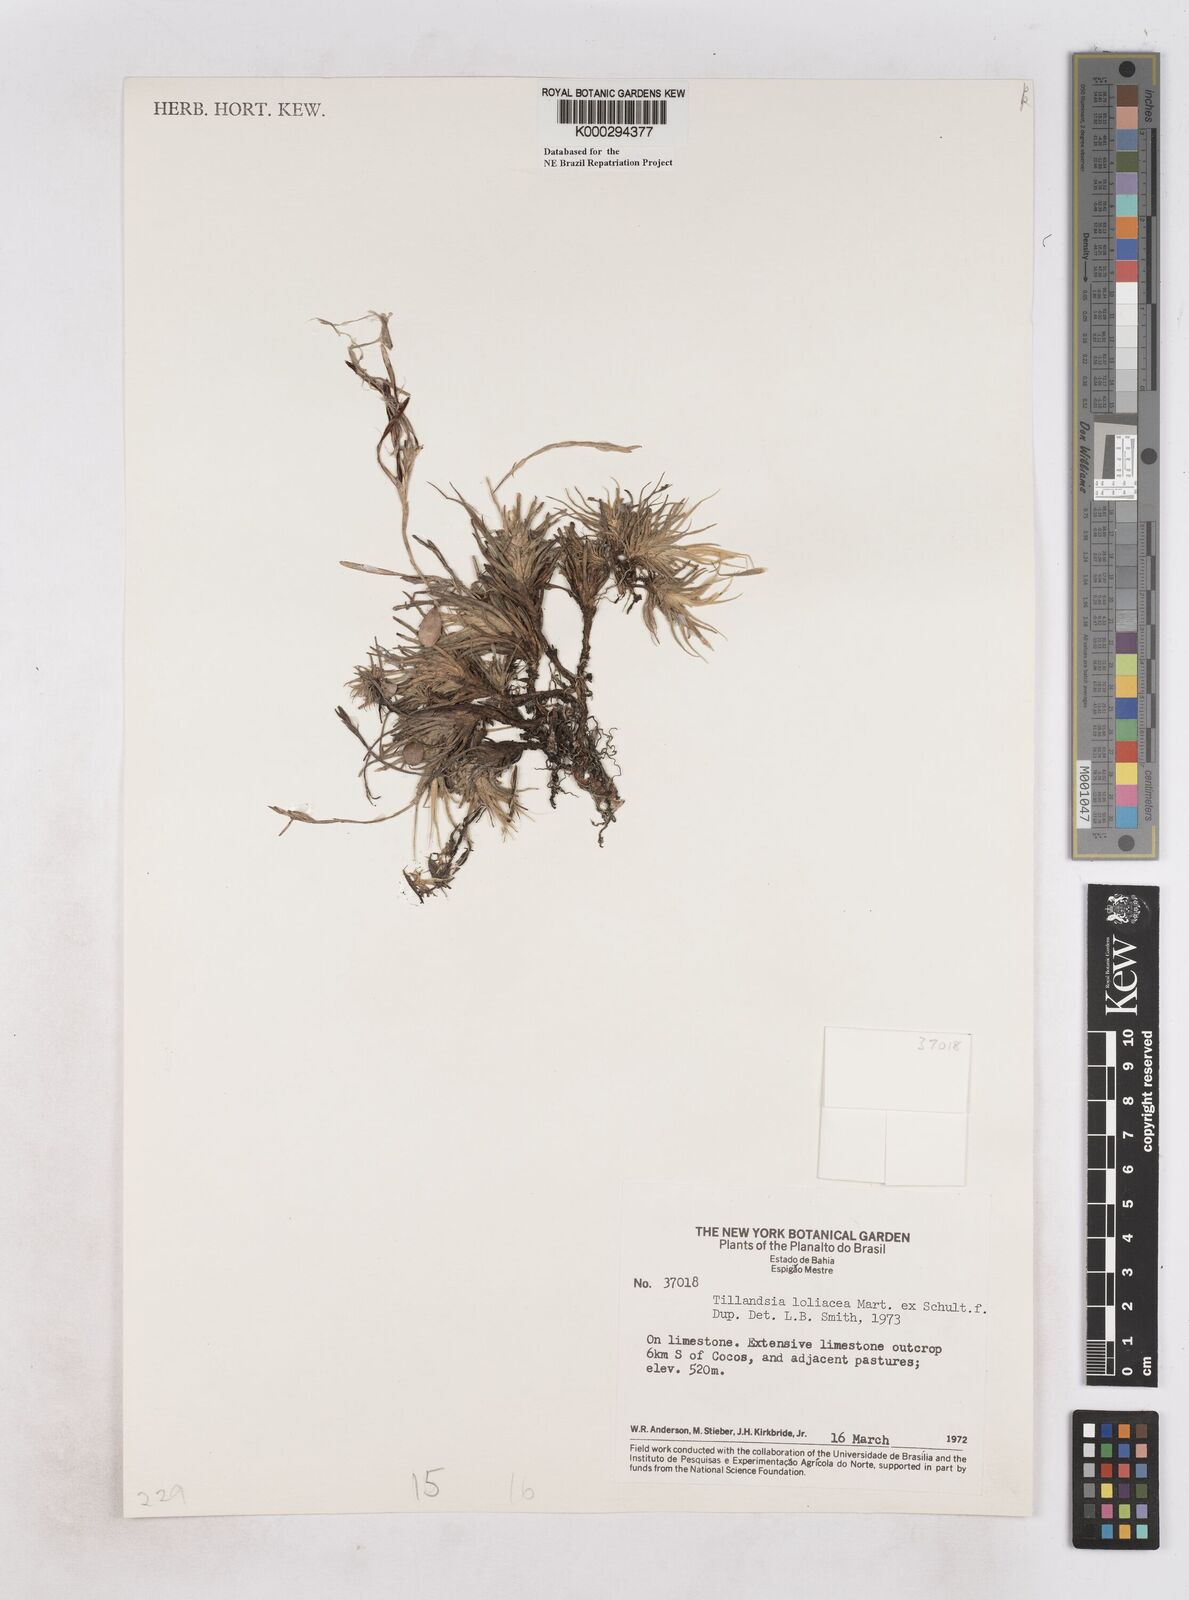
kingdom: Plantae
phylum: Tracheophyta
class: Liliopsida
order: Poales
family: Bromeliaceae
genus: Tillandsia
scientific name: Tillandsia loliacea
